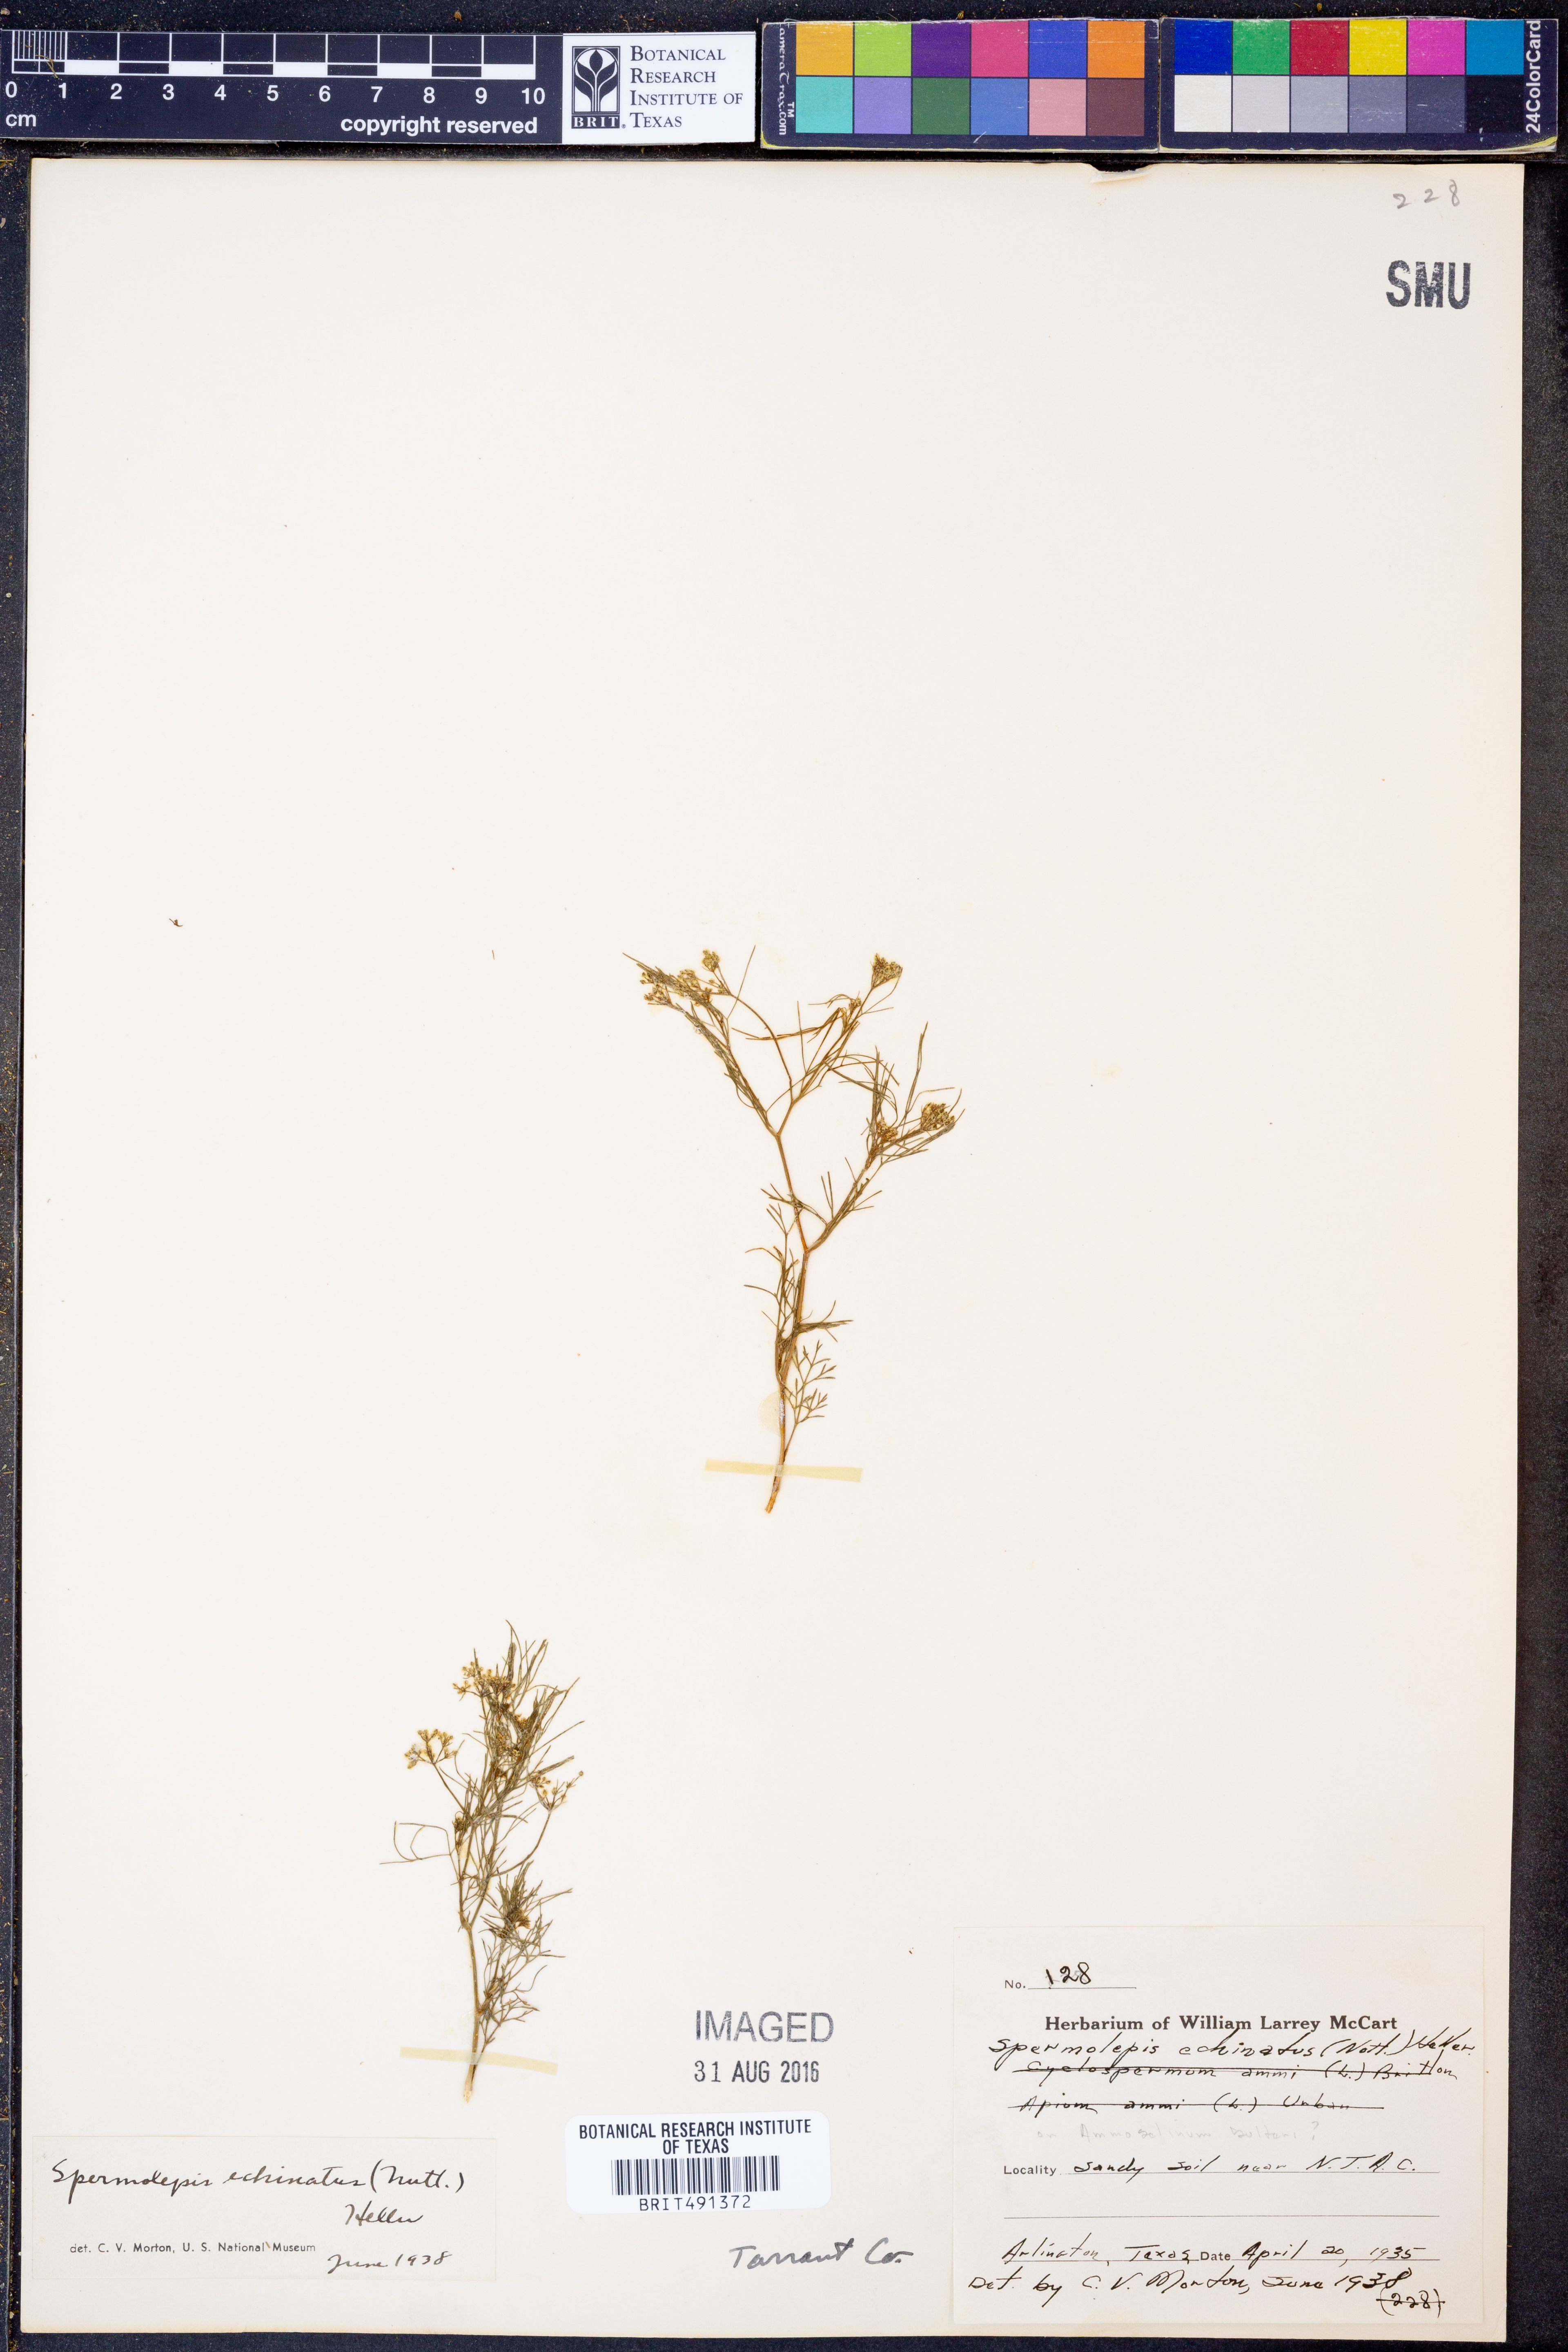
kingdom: Plantae
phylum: Tracheophyta
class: Magnoliopsida
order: Apiales
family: Apiaceae
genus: Spermolepis
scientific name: Spermolepis echinatus
